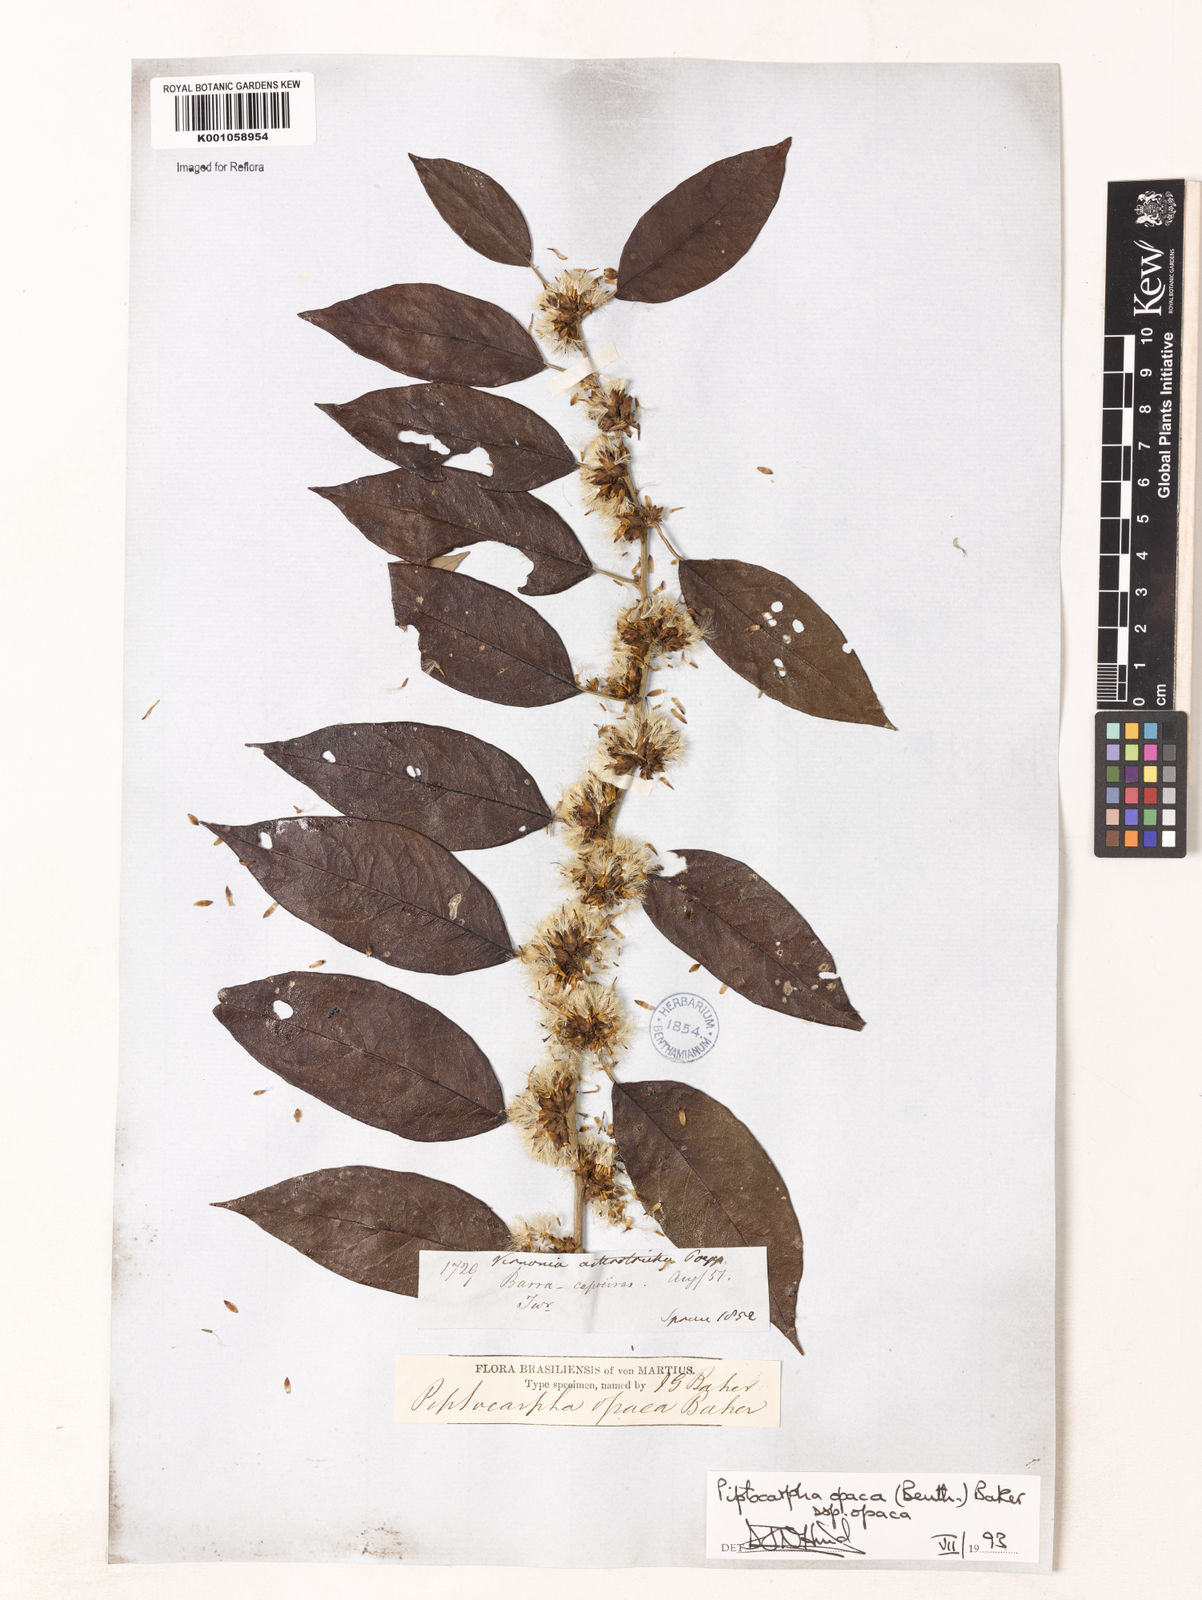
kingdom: Plantae
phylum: Tracheophyta
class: Magnoliopsida
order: Asterales
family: Asteraceae
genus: Piptocarpha
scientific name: Piptocarpha opaca
